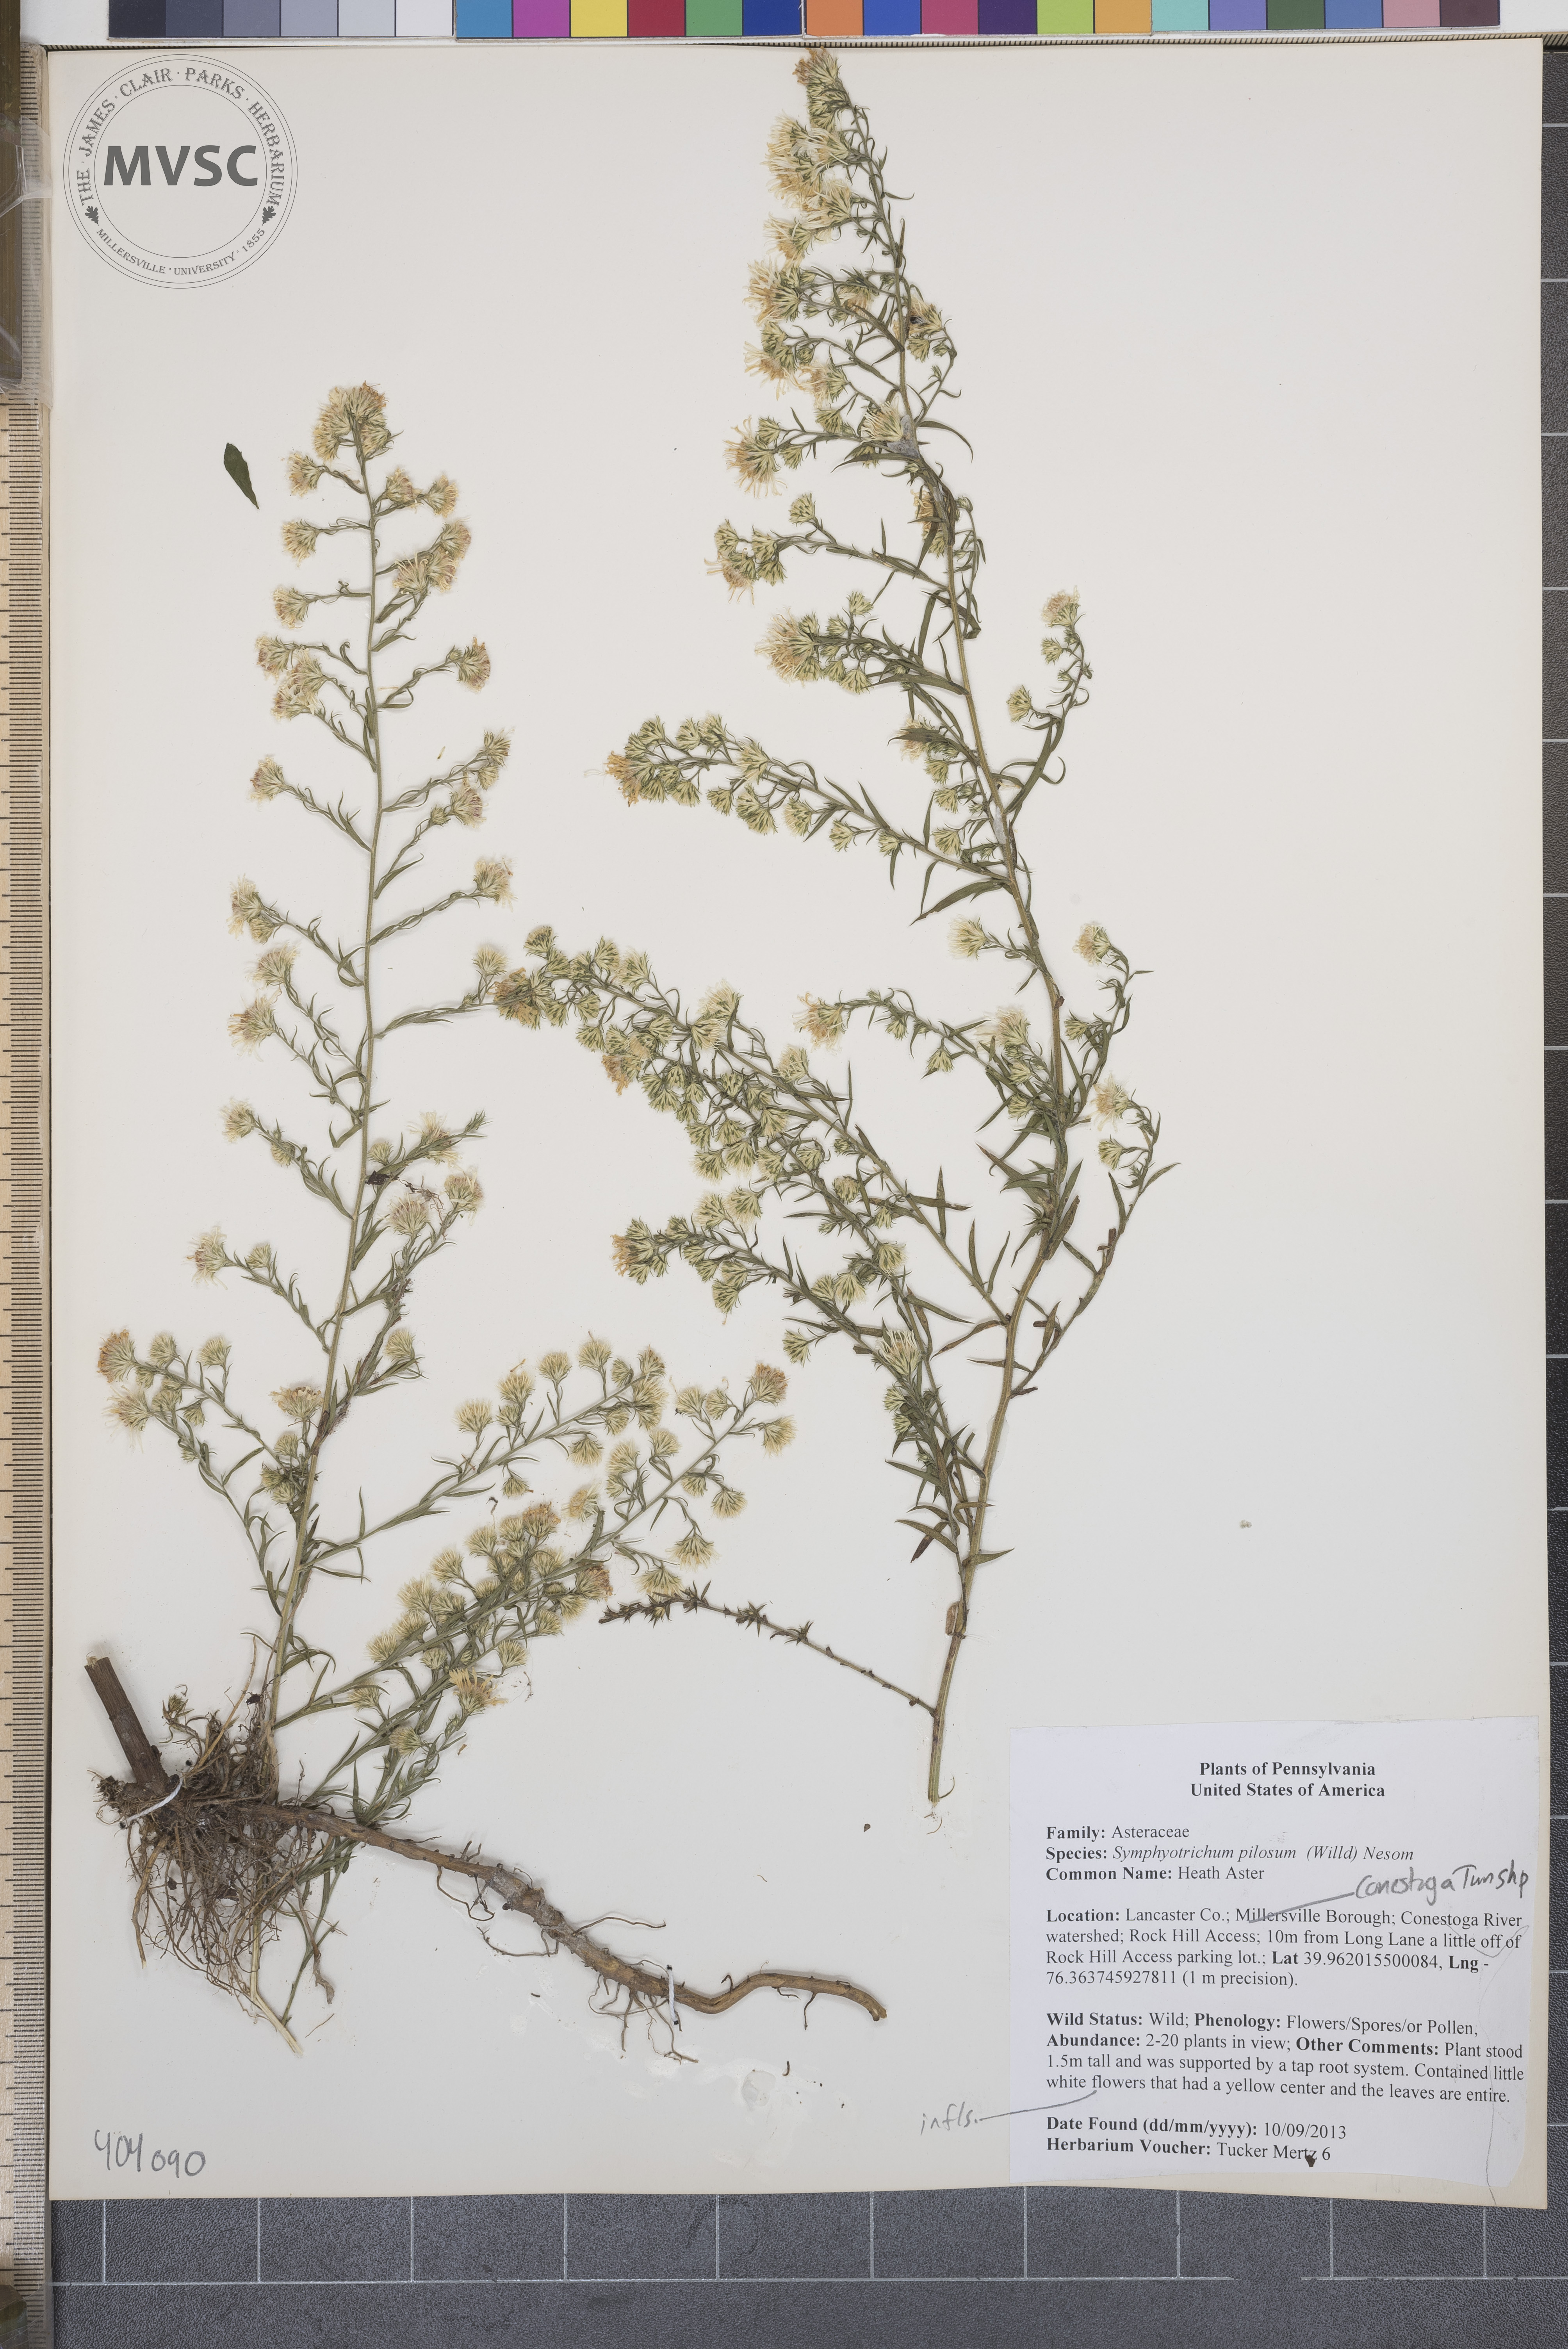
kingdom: Plantae
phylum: Tracheophyta
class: Magnoliopsida
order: Asterales
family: Asteraceae
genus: Symphyotrichum
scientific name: Symphyotrichum pilosum
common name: Heath Aster
